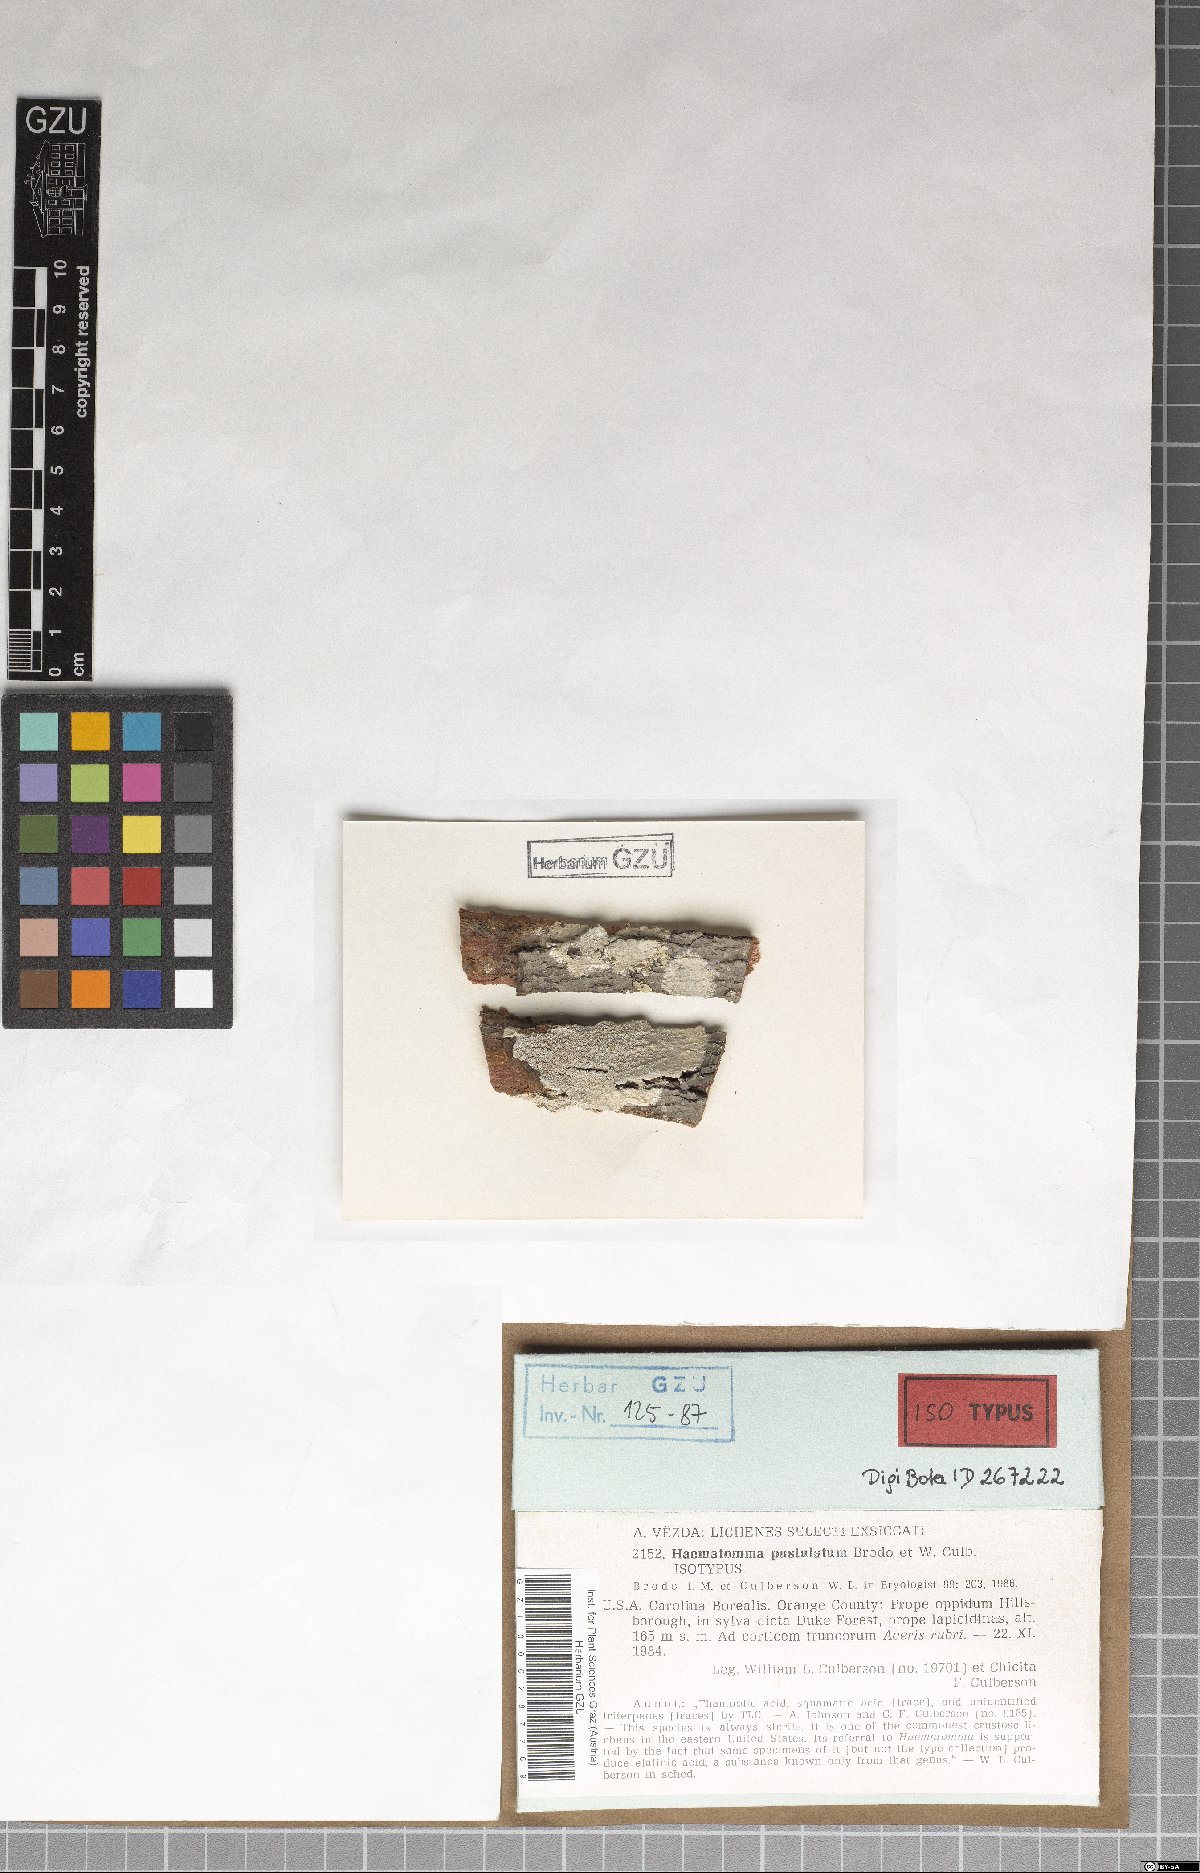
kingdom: Fungi
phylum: Ascomycota
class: Lecanoromycetes
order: Pertusariales
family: Pertusariaceae
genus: Lepra
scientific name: Lepra pustulata
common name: Pustule crust lichen
